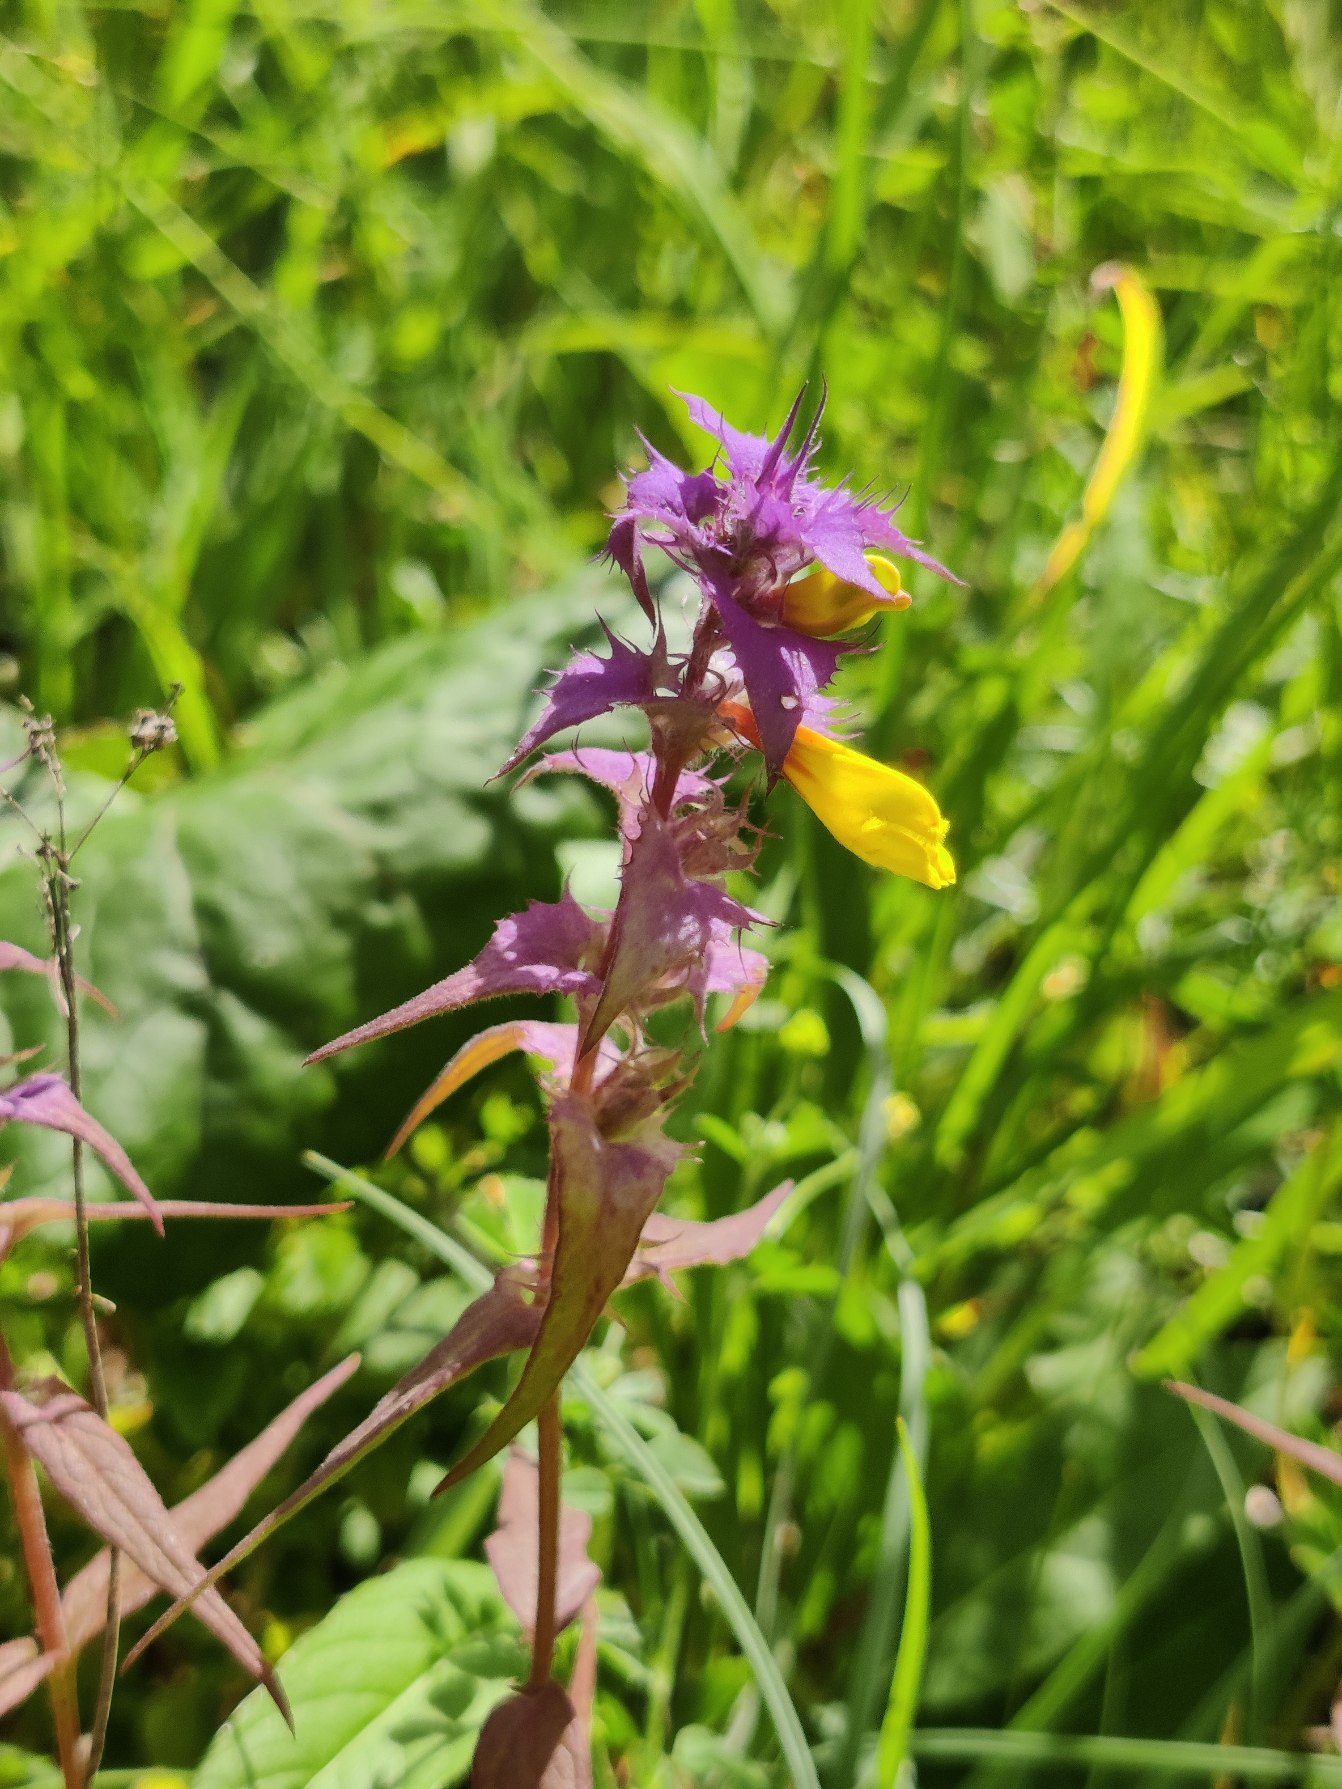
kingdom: Plantae
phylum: Tracheophyta
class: Magnoliopsida
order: Lamiales
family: Orobanchaceae
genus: Melampyrum
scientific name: Melampyrum nemorosum
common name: Blåtoppet kohvede
